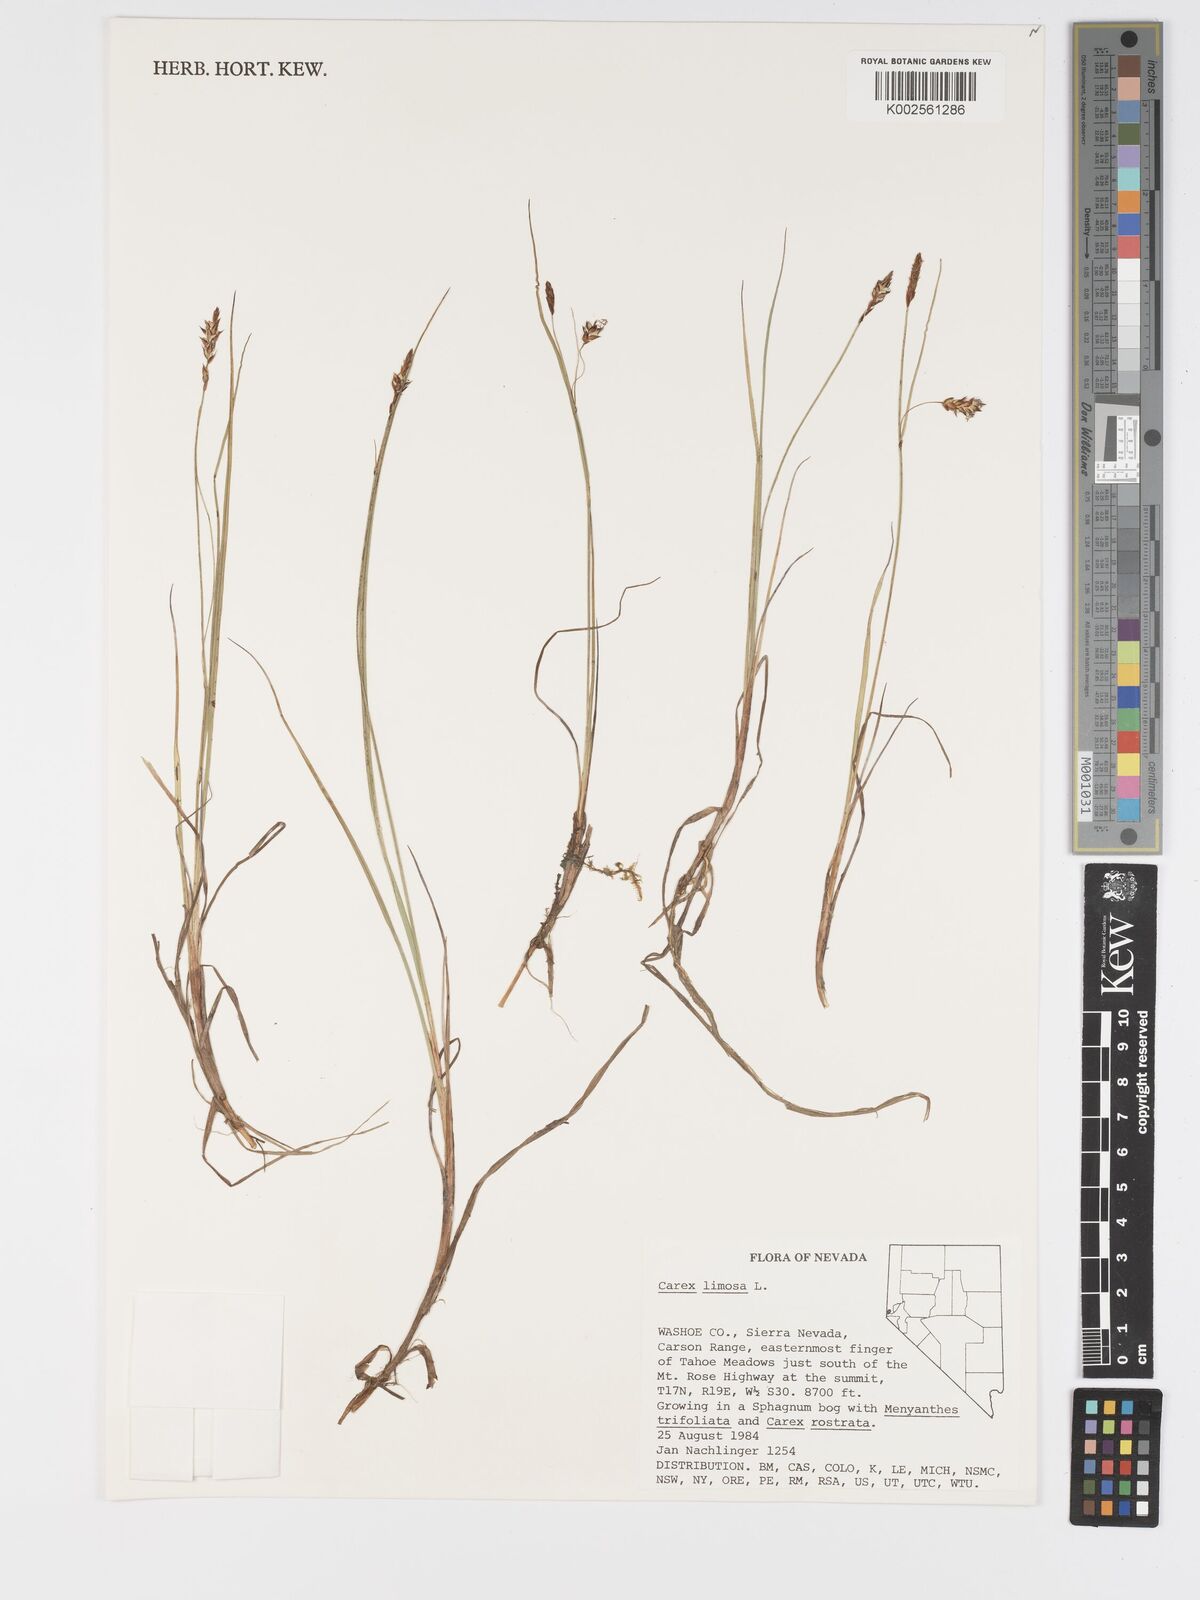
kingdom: Plantae
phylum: Tracheophyta
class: Liliopsida
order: Poales
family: Cyperaceae
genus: Carex
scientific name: Carex limosa
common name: Bog sedge
